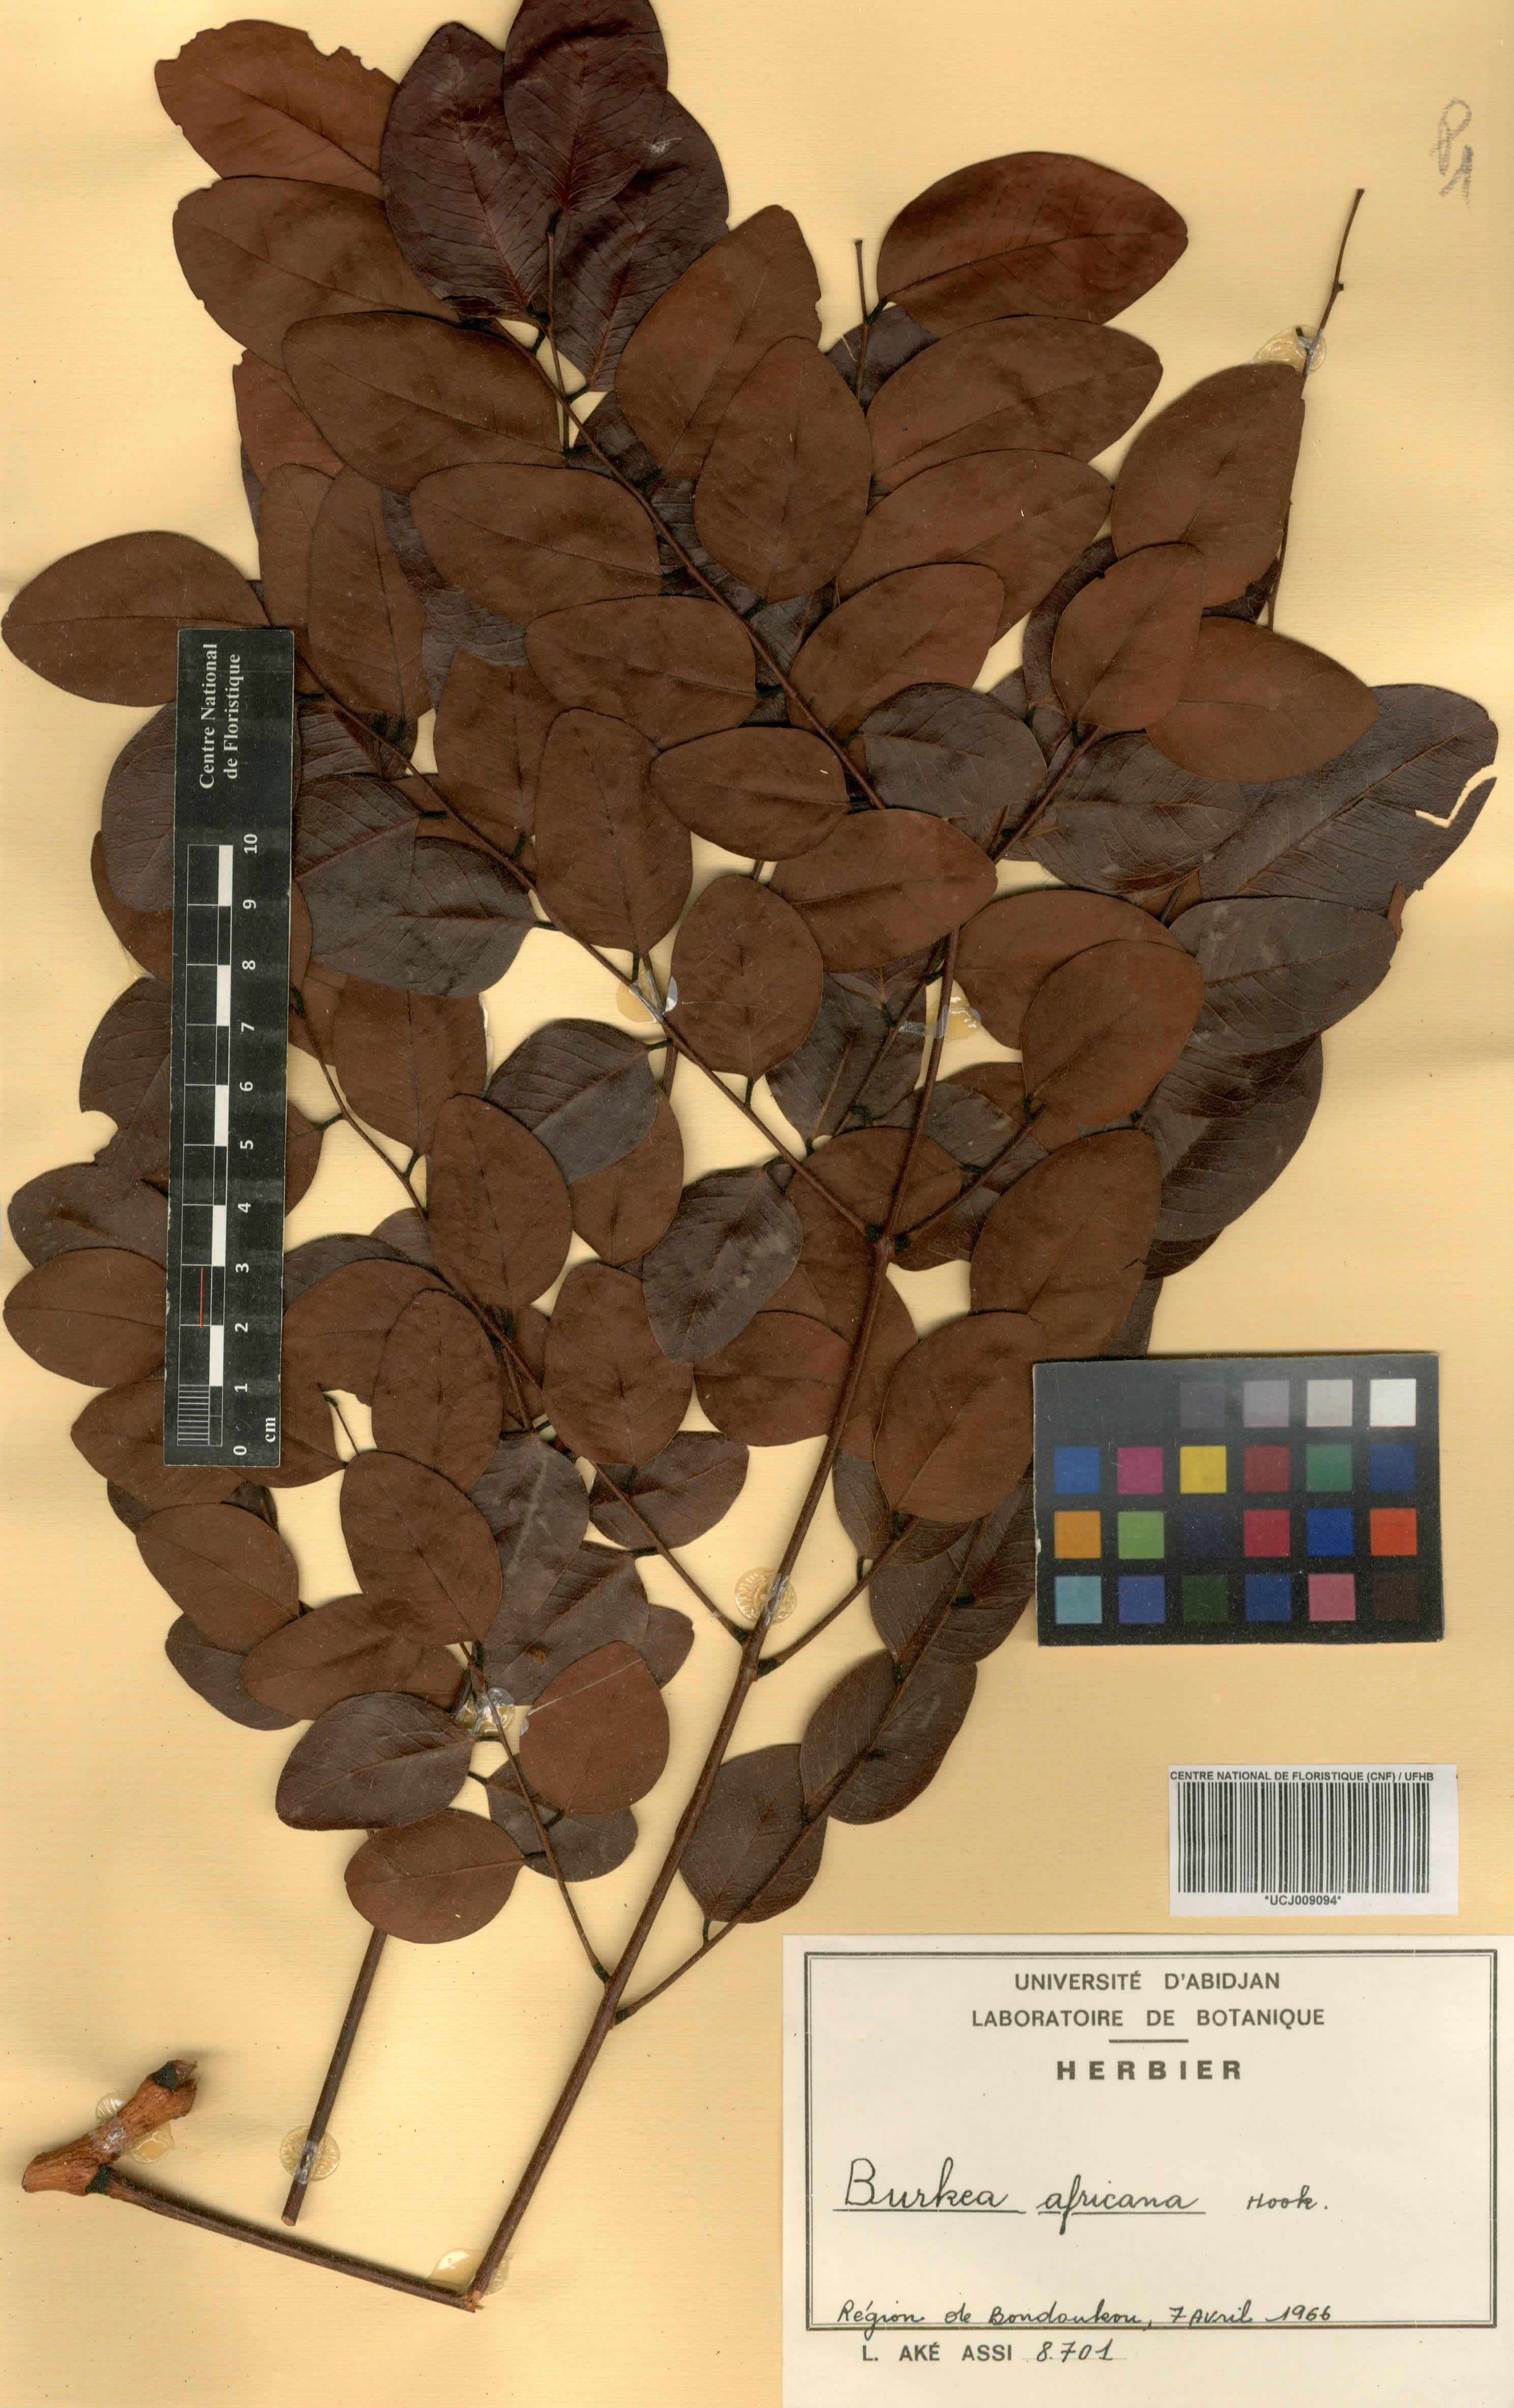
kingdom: Plantae
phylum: Tracheophyta
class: Magnoliopsida
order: Fabales
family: Fabaceae
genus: Burkea
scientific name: Burkea africana
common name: Mkalati tree
